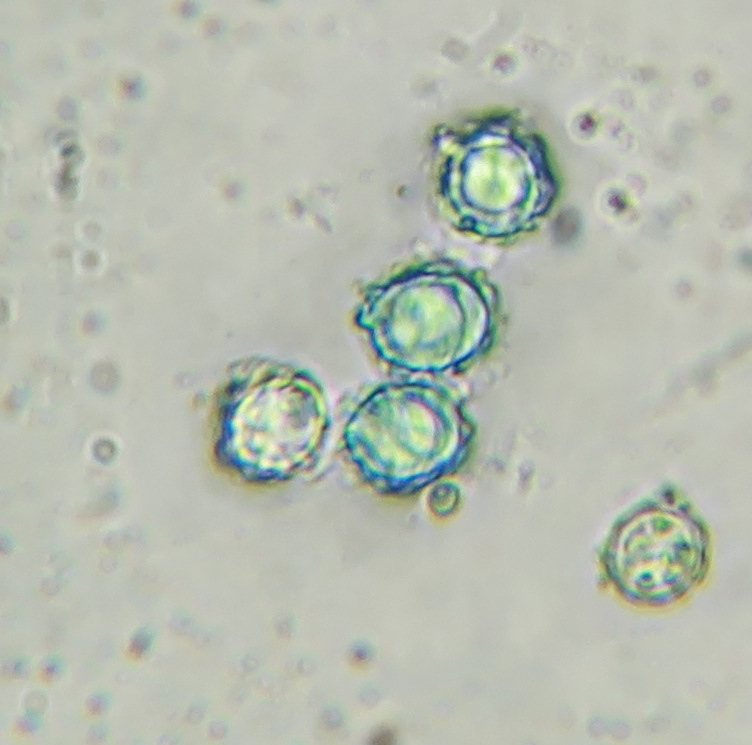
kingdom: Fungi
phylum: Basidiomycota
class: Agaricomycetes
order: Russulales
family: Russulaceae
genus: Lactarius
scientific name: Lactarius circellatus
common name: avnbøg-mælkehat
